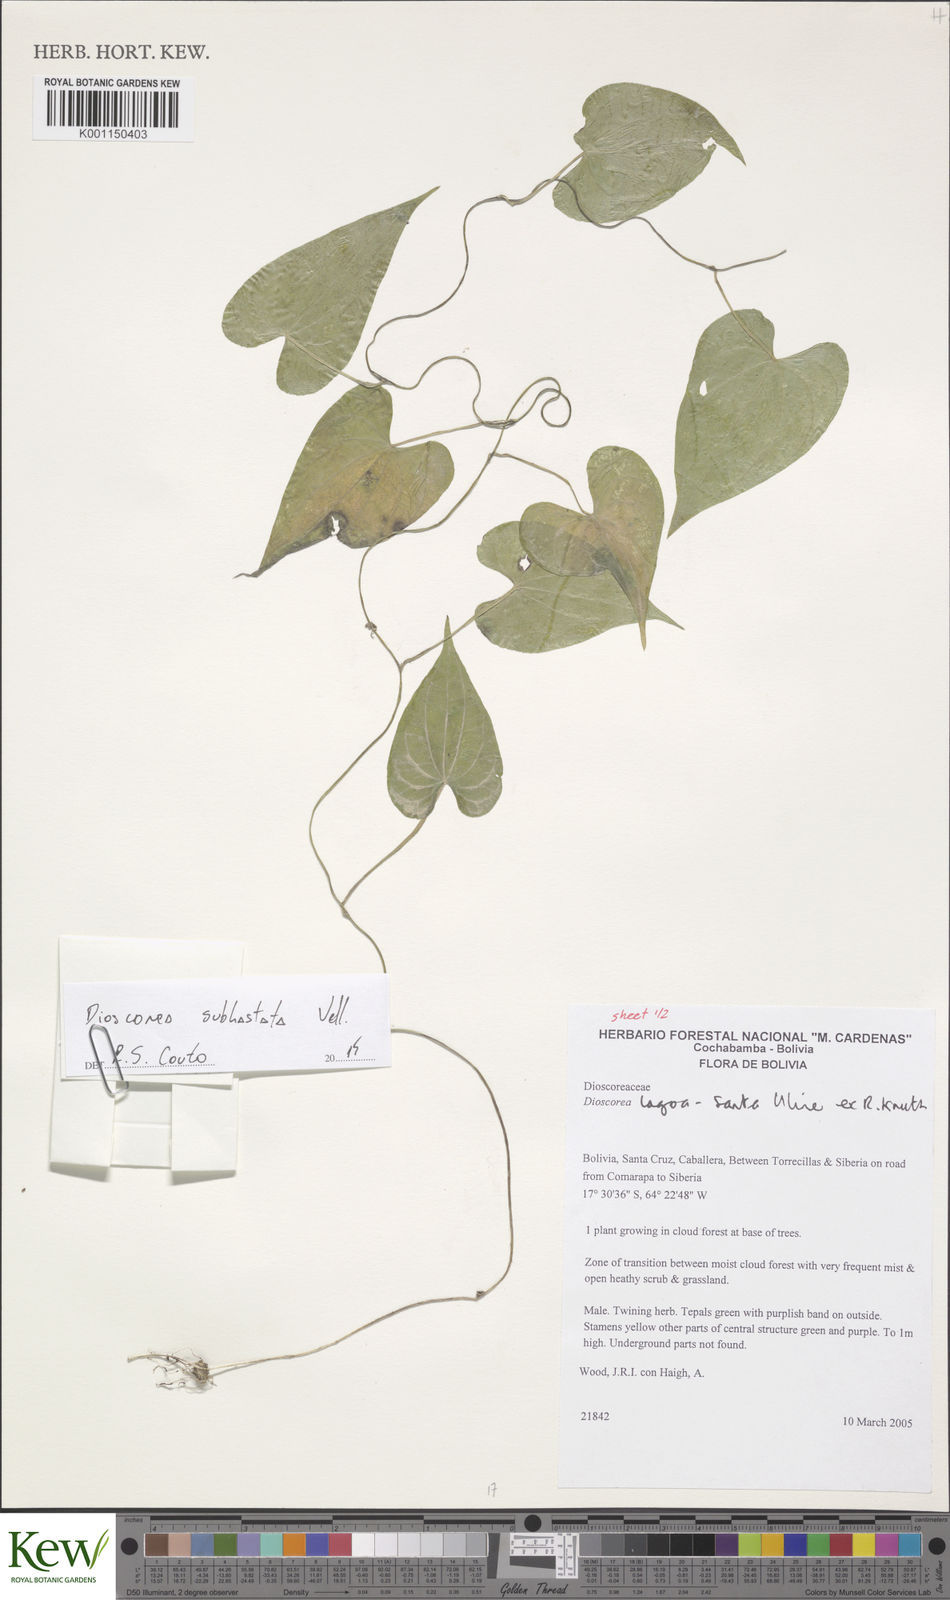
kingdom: Plantae
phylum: Tracheophyta
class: Liliopsida
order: Dioscoreales
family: Dioscoreaceae
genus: Dioscorea
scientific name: Dioscorea subhastata
